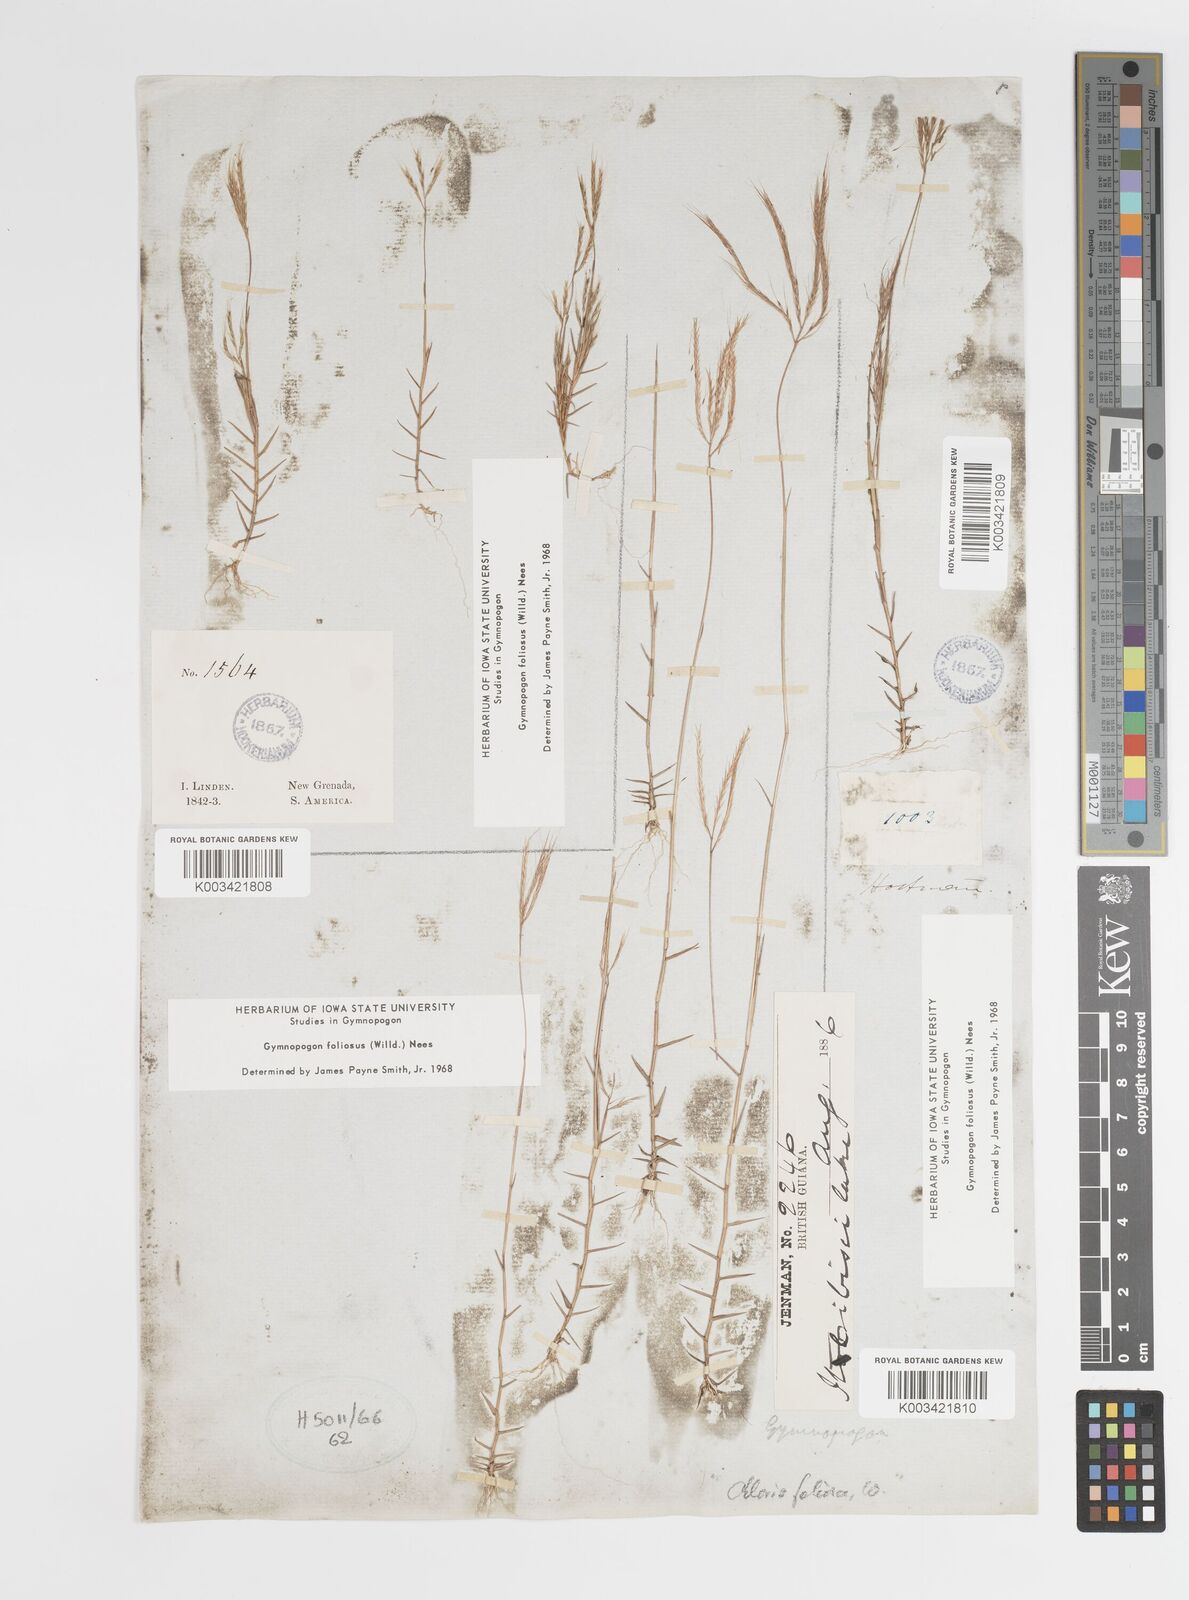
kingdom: Plantae
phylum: Tracheophyta
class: Liliopsida
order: Poales
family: Poaceae
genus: Gymnopogon
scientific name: Gymnopogon foliosus
